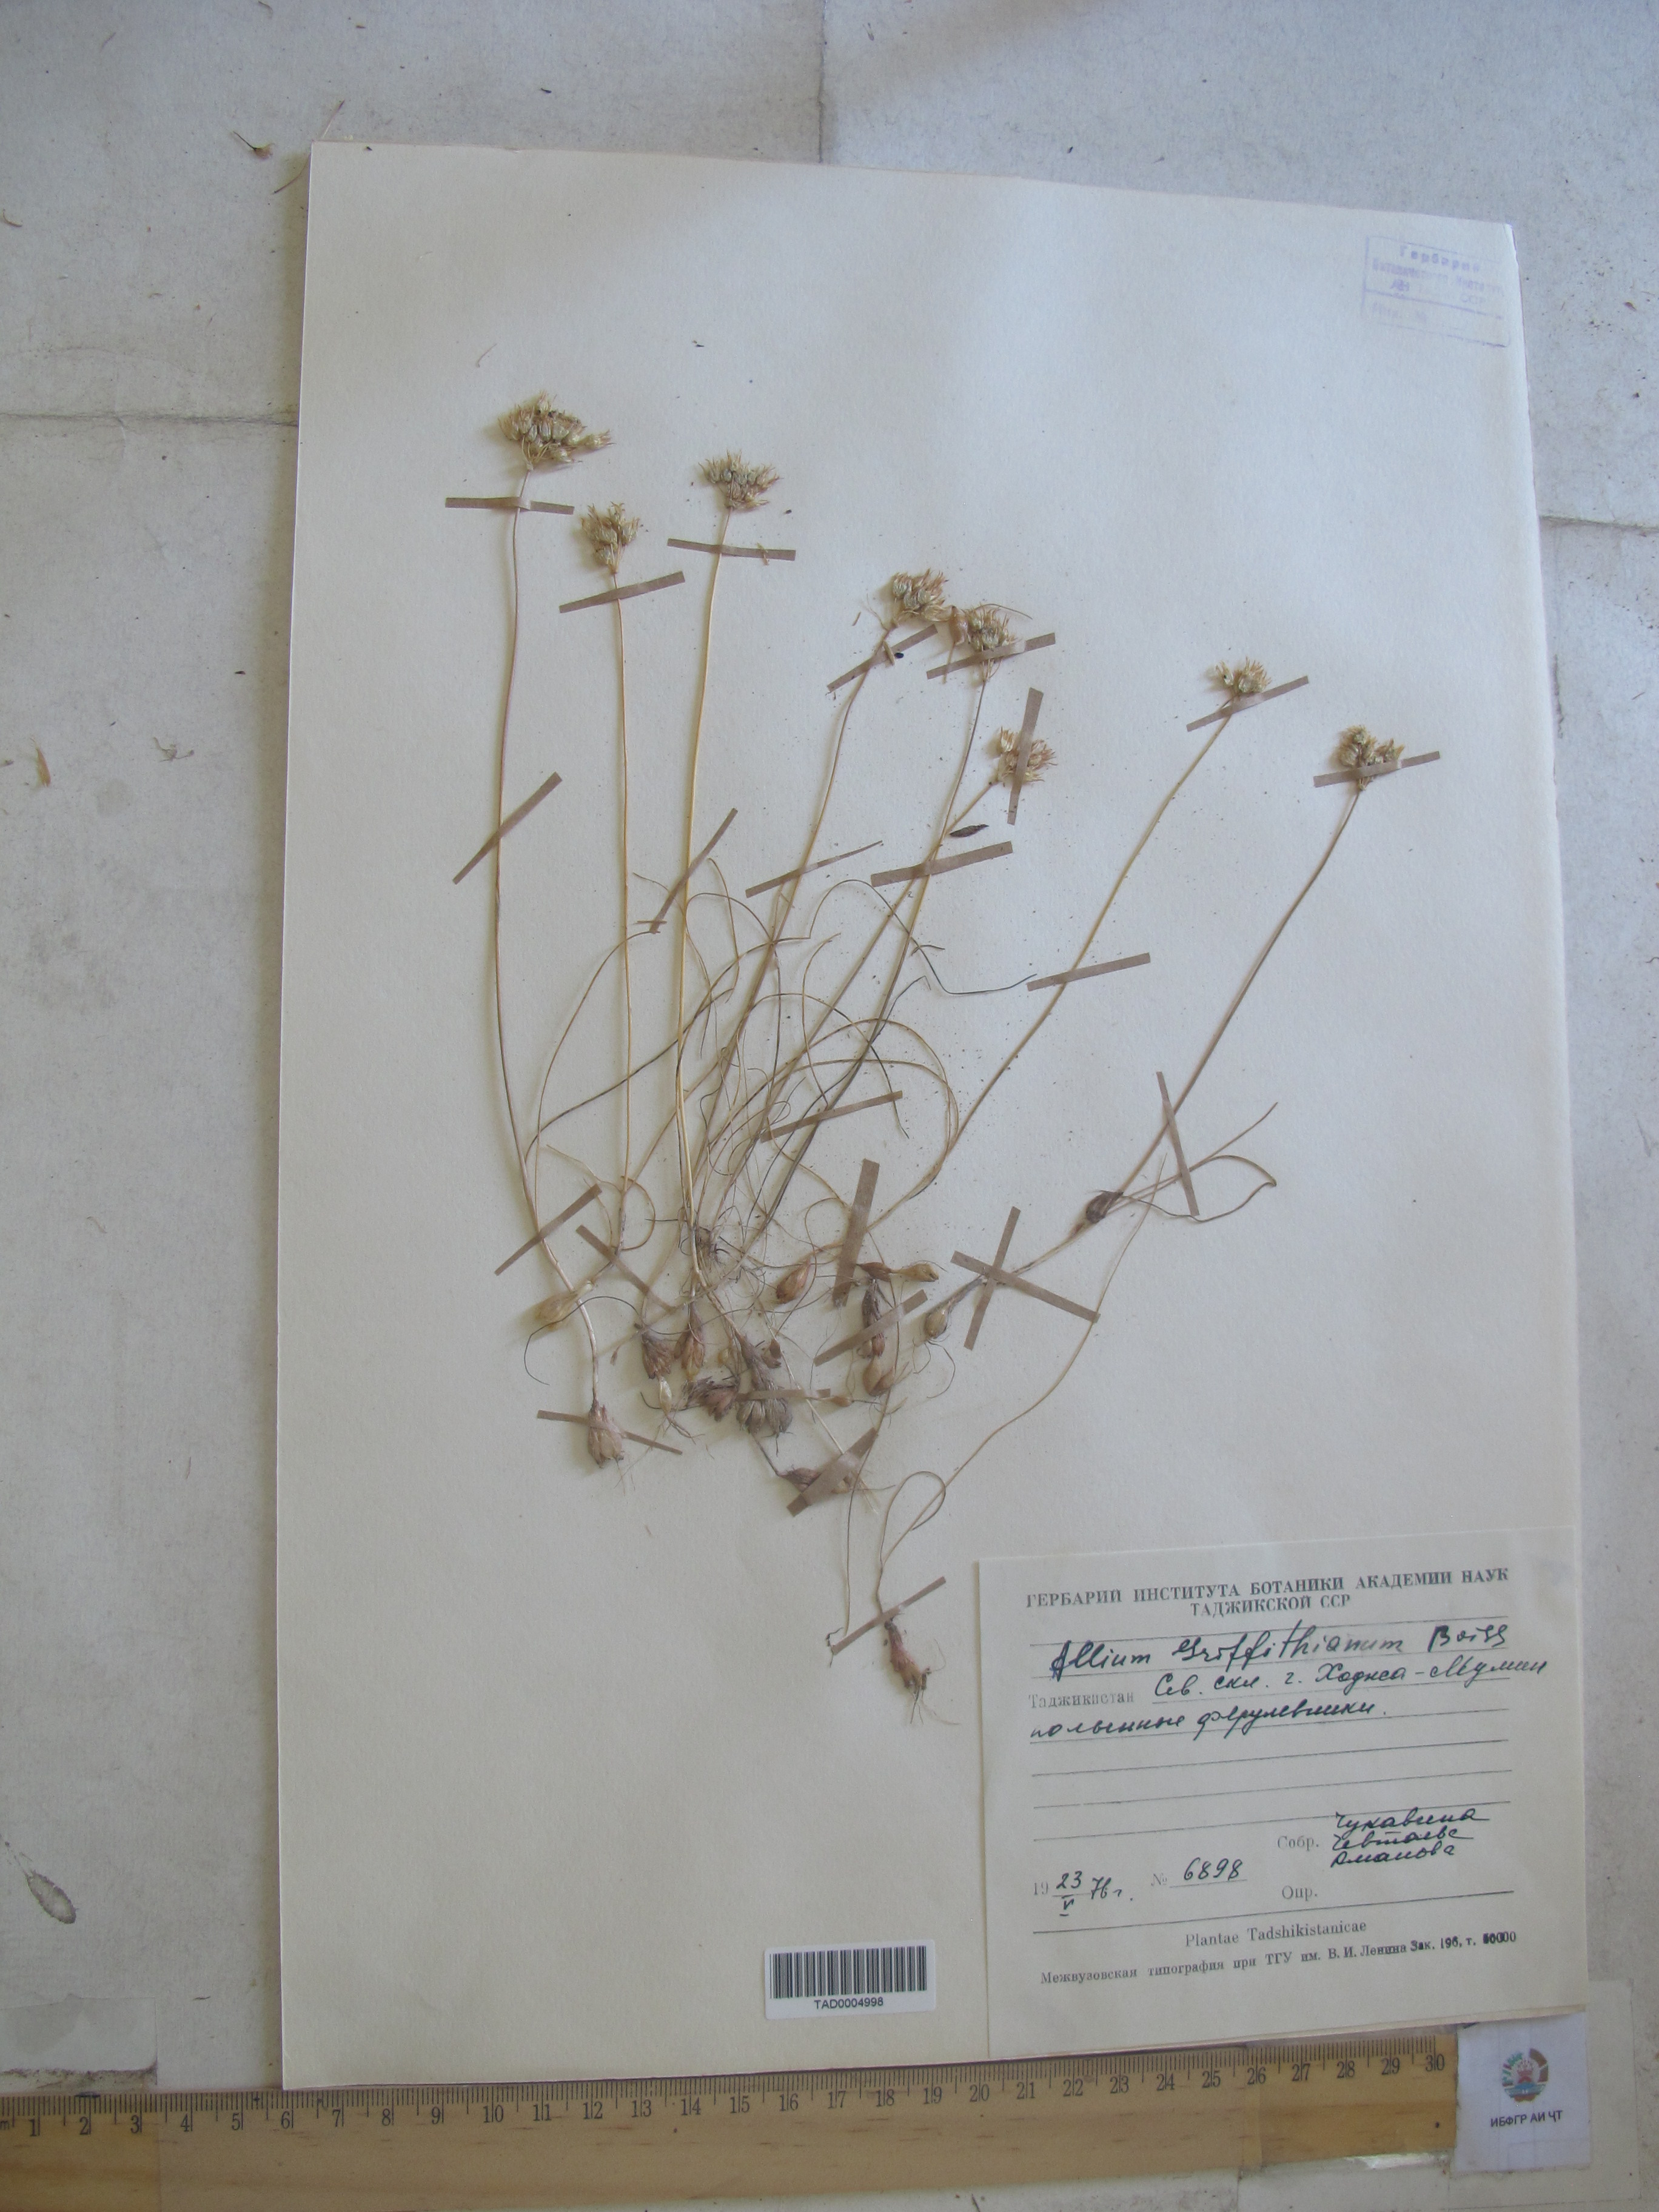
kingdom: Plantae
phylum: Tracheophyta
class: Liliopsida
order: Asparagales
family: Amaryllidaceae
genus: Allium
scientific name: Allium griffithianum
